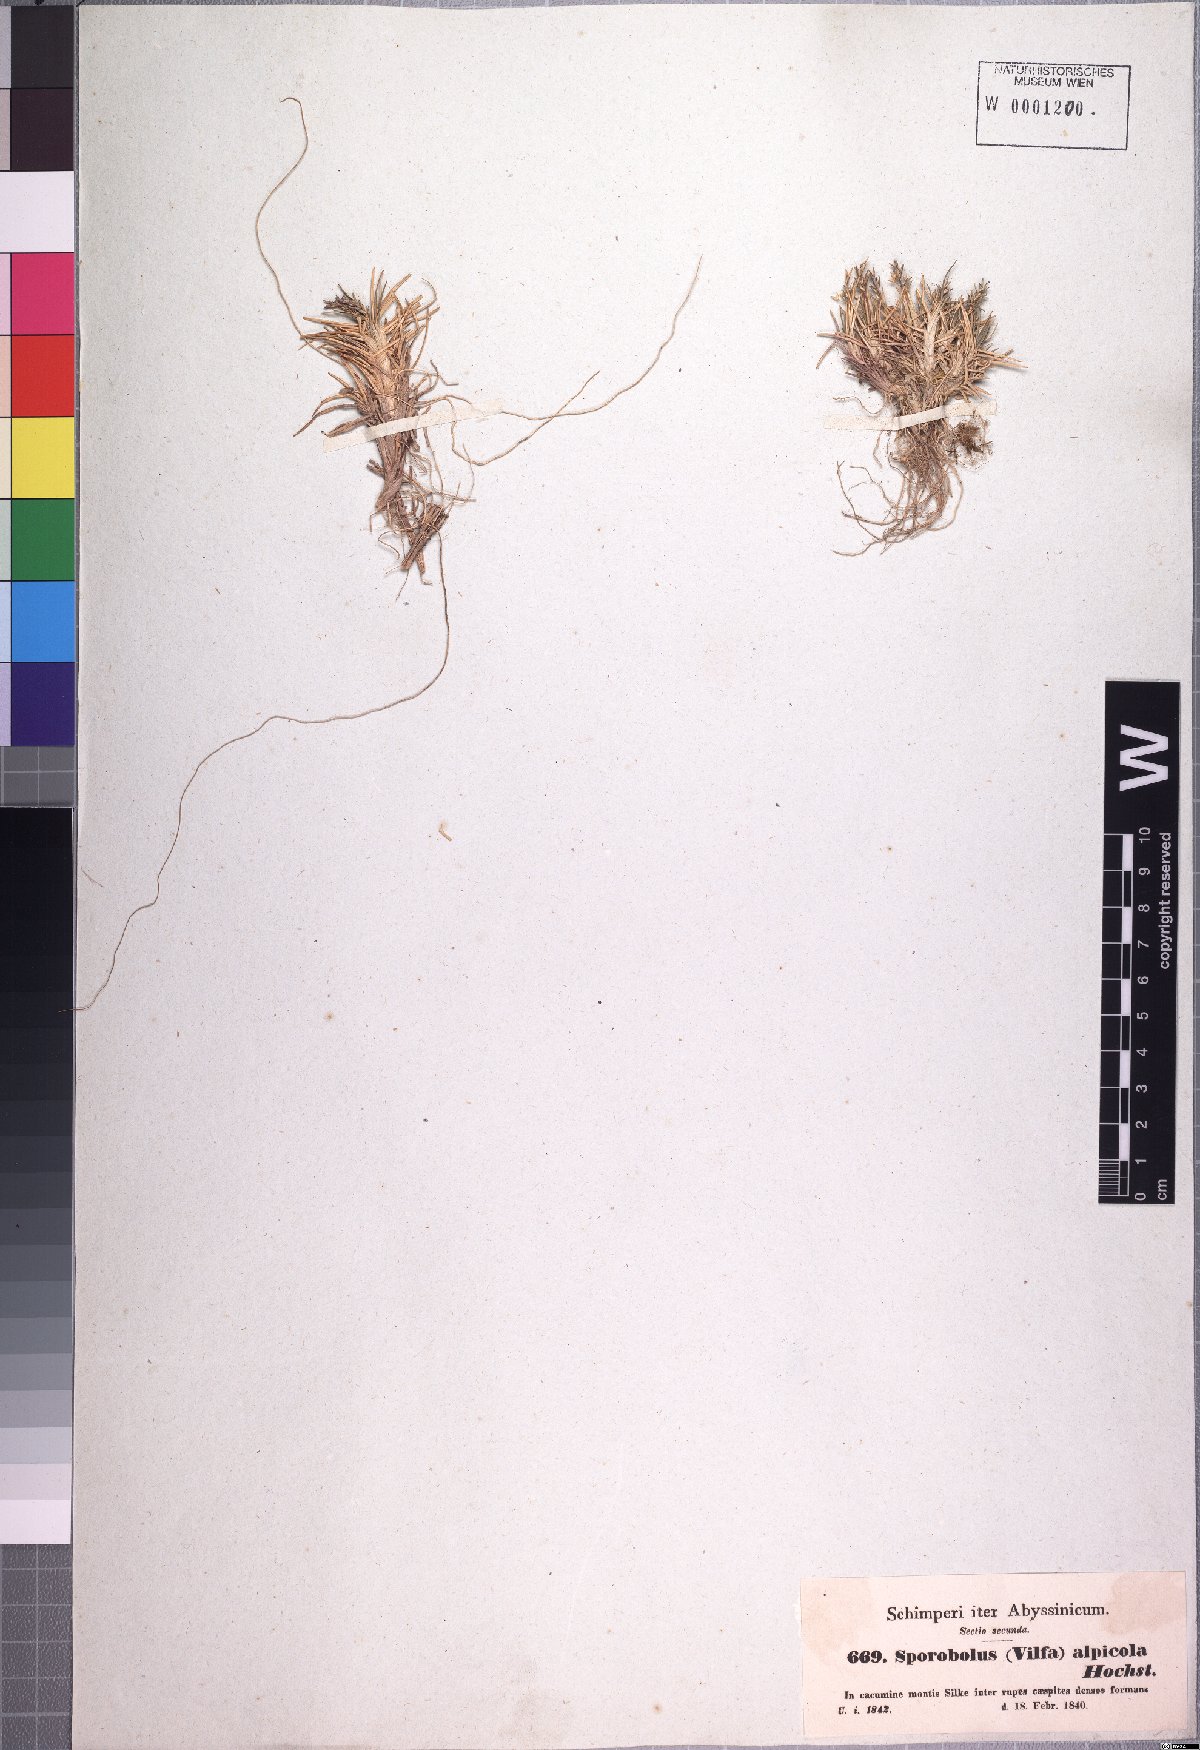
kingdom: Plantae
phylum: Tracheophyta
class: Liliopsida
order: Poales
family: Poaceae
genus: Agrostis
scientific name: Agrostis sclerophylla
